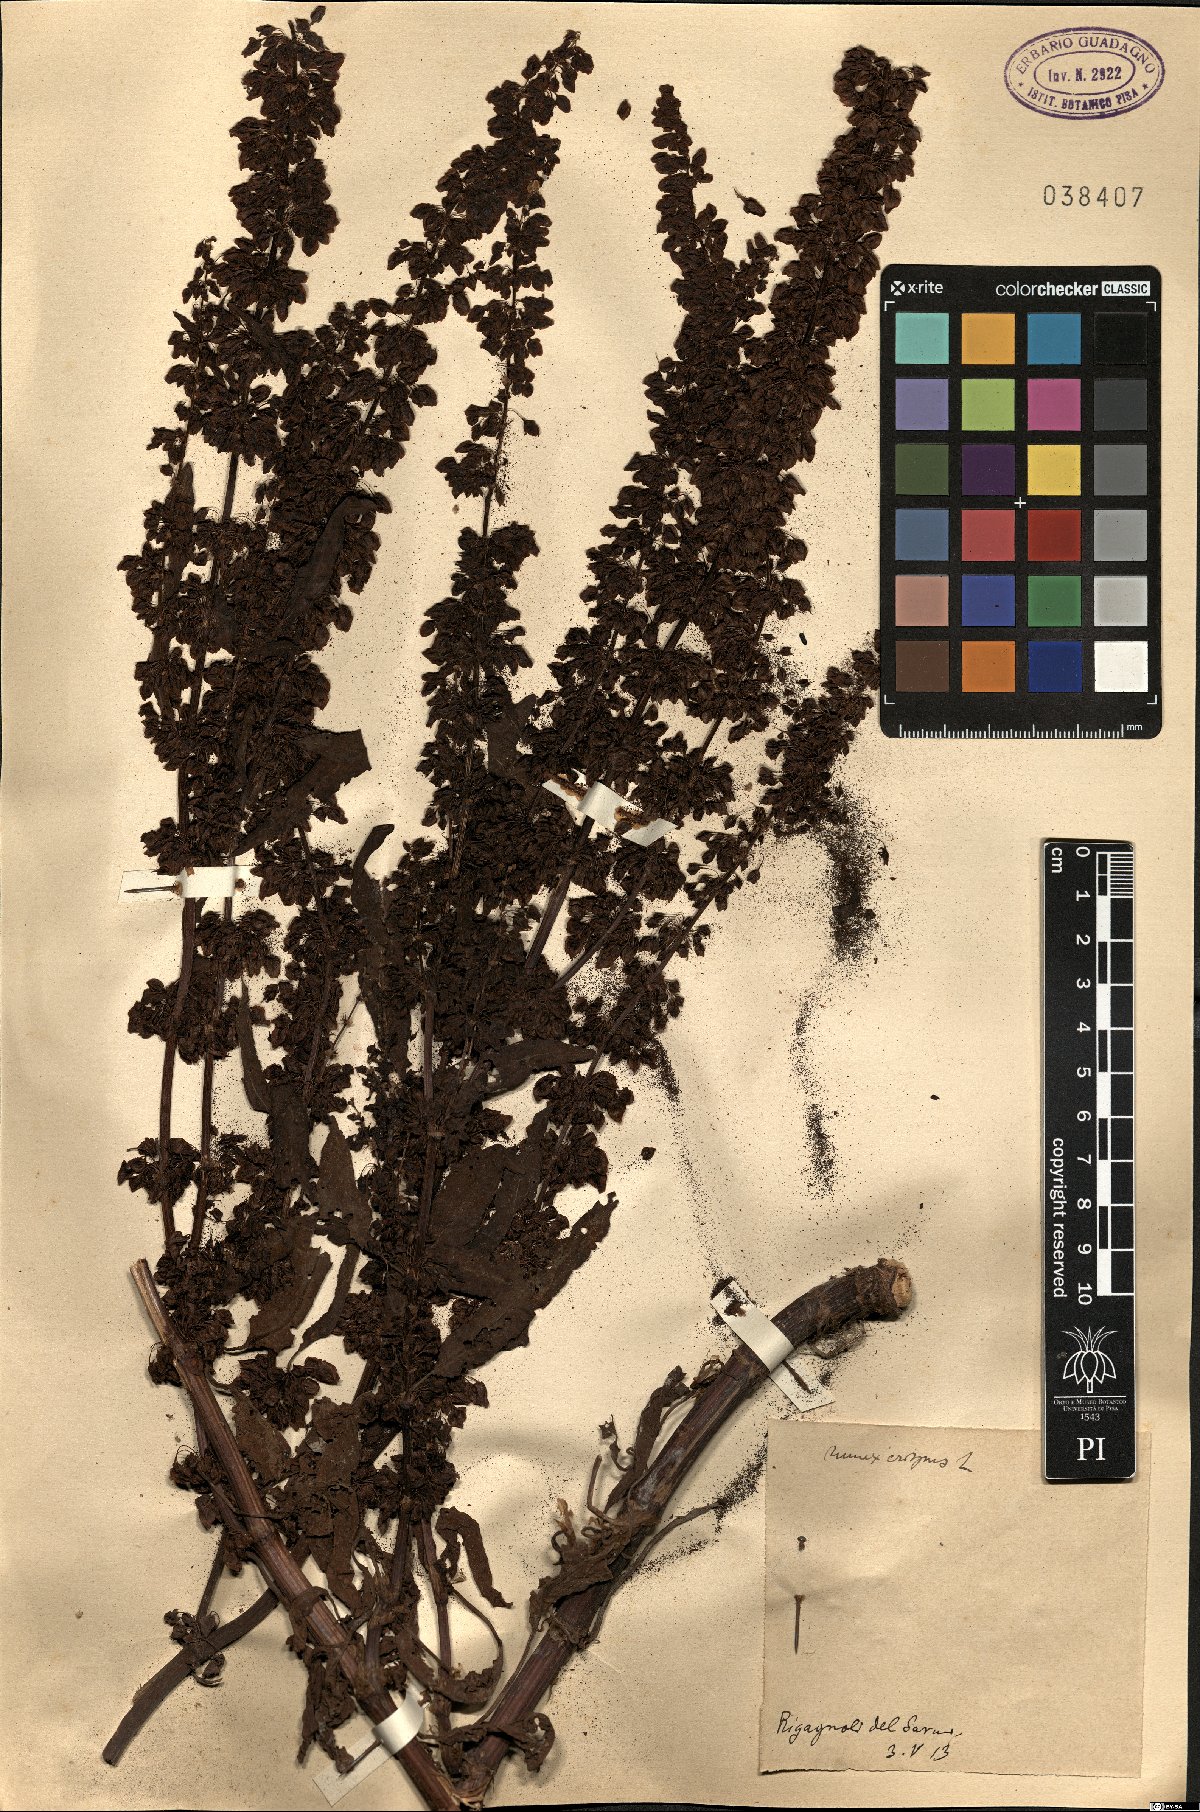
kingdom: Plantae
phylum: Tracheophyta
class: Magnoliopsida
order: Caryophyllales
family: Polygonaceae
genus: Rumex
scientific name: Rumex crispus
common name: Curled dock
